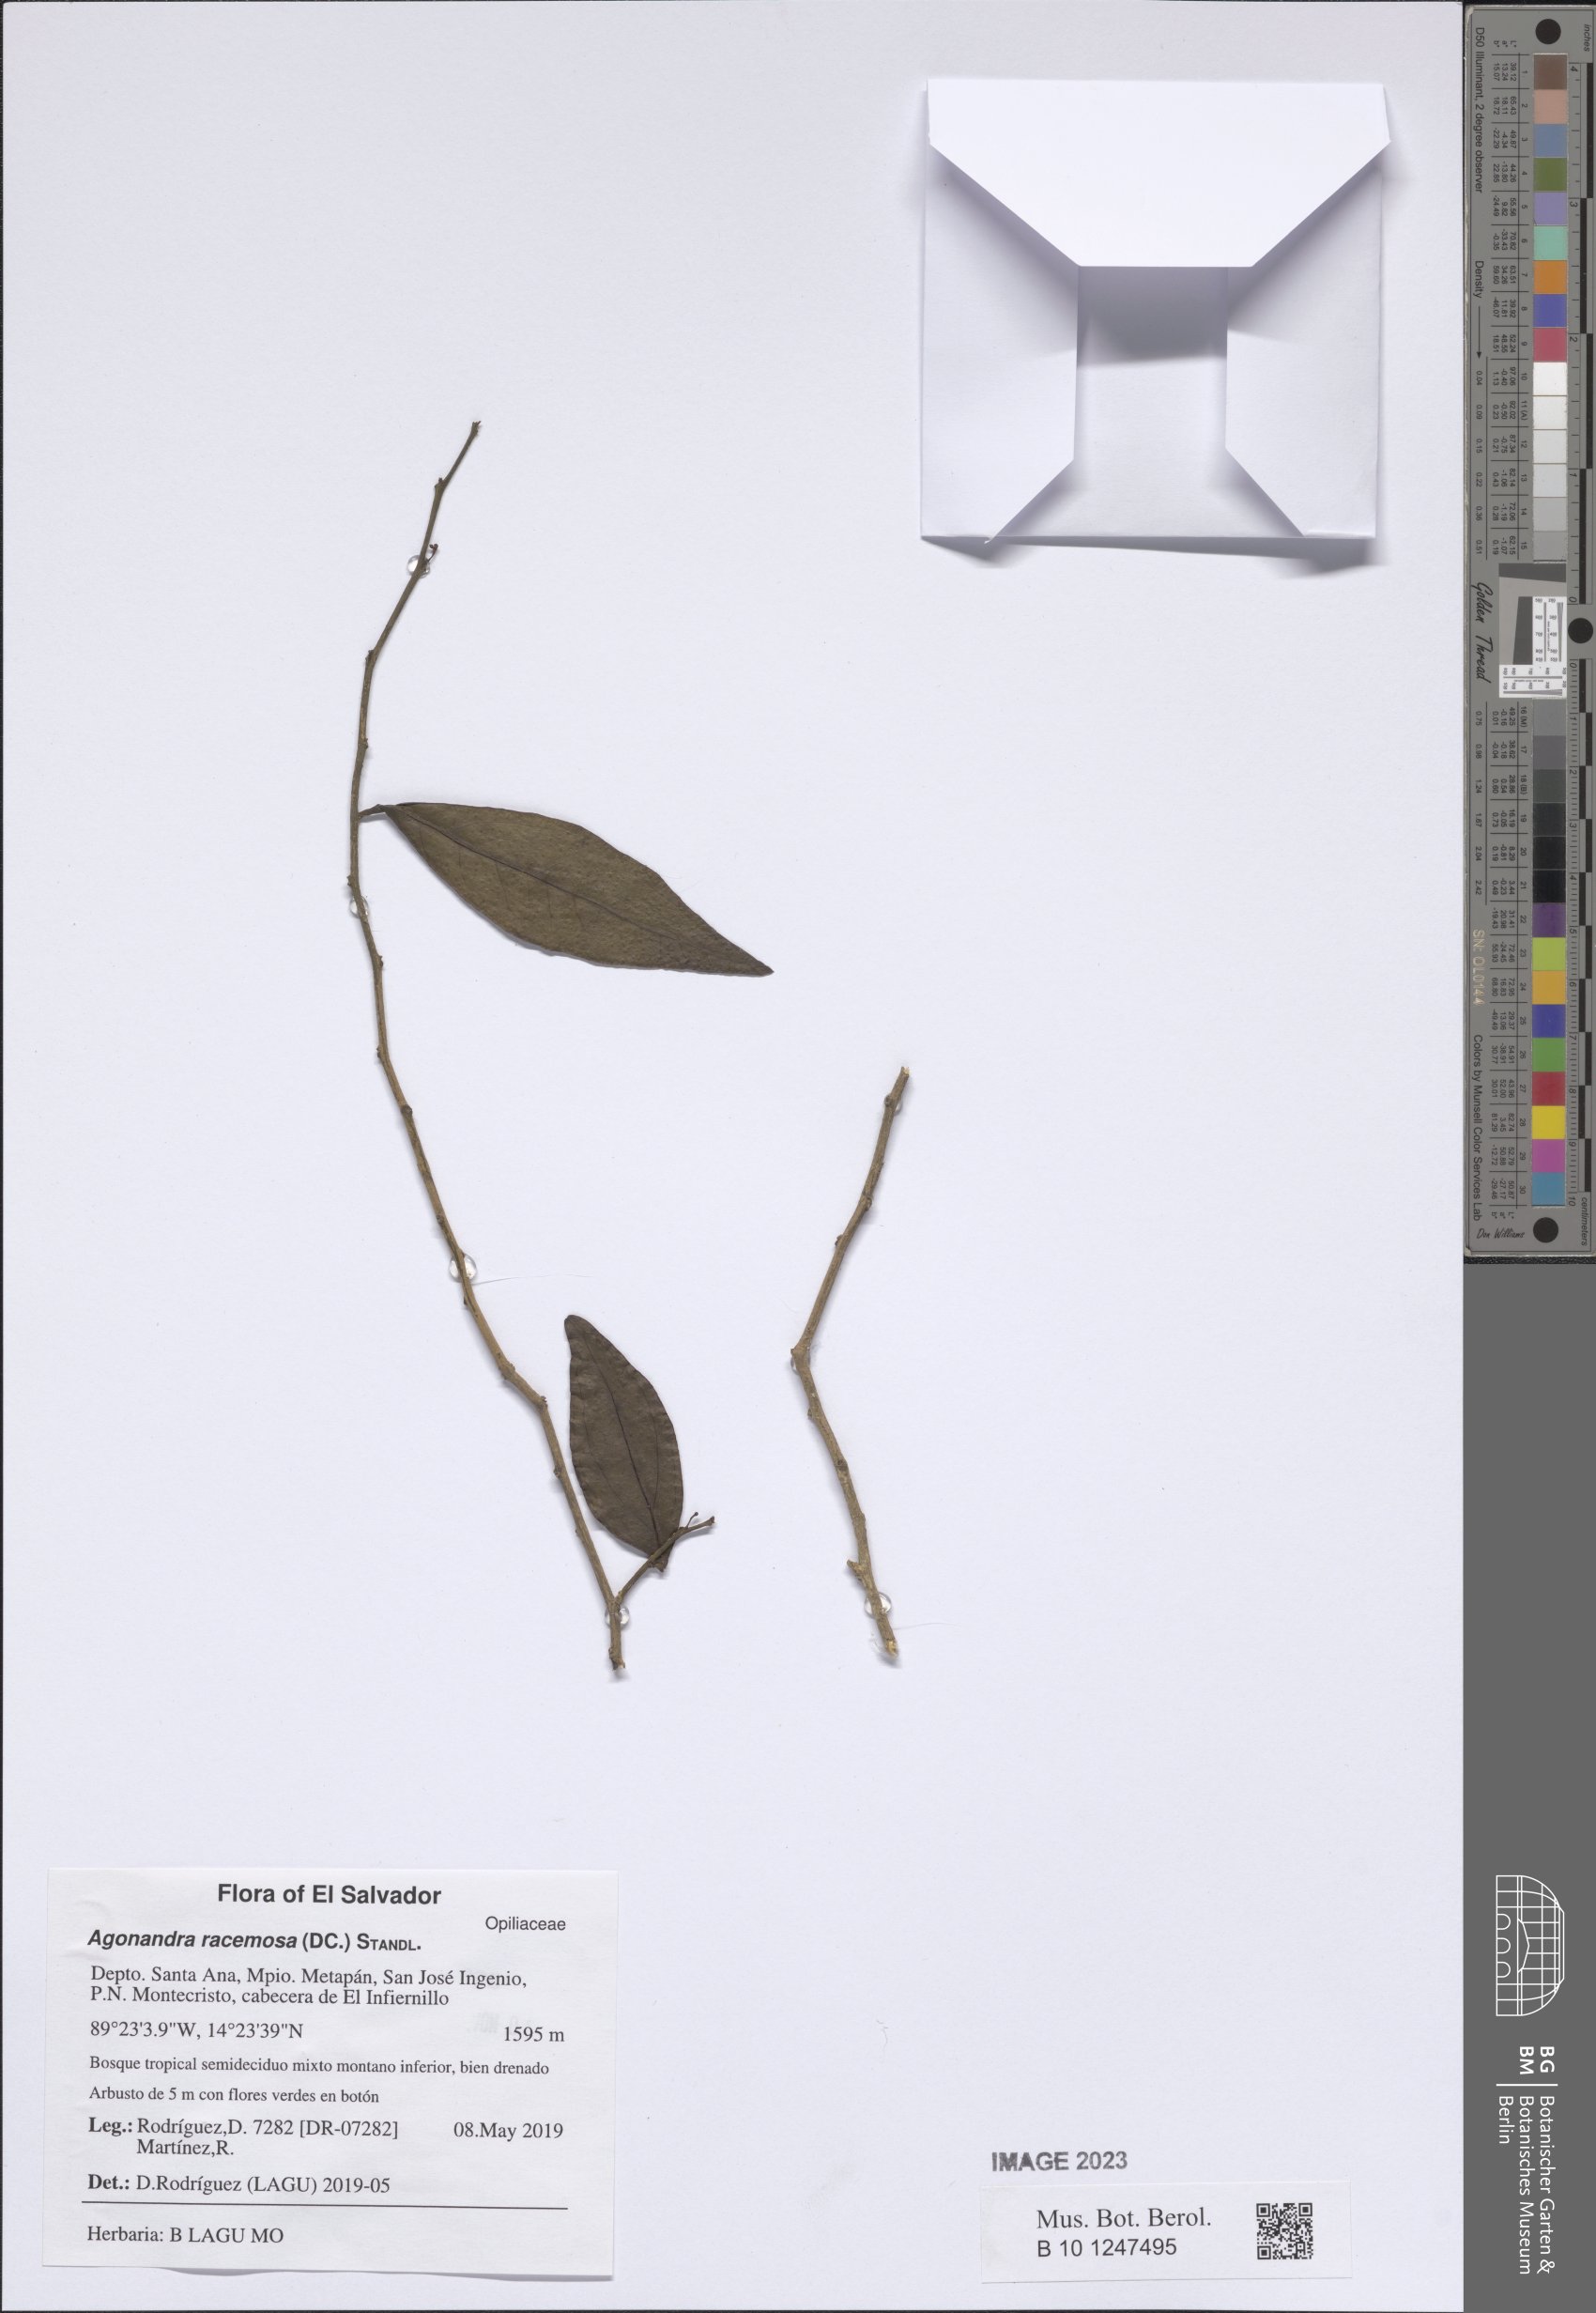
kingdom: Plantae
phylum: Tracheophyta
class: Magnoliopsida
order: Santalales
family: Opiliaceae
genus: Agonandra
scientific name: Agonandra racemosa
